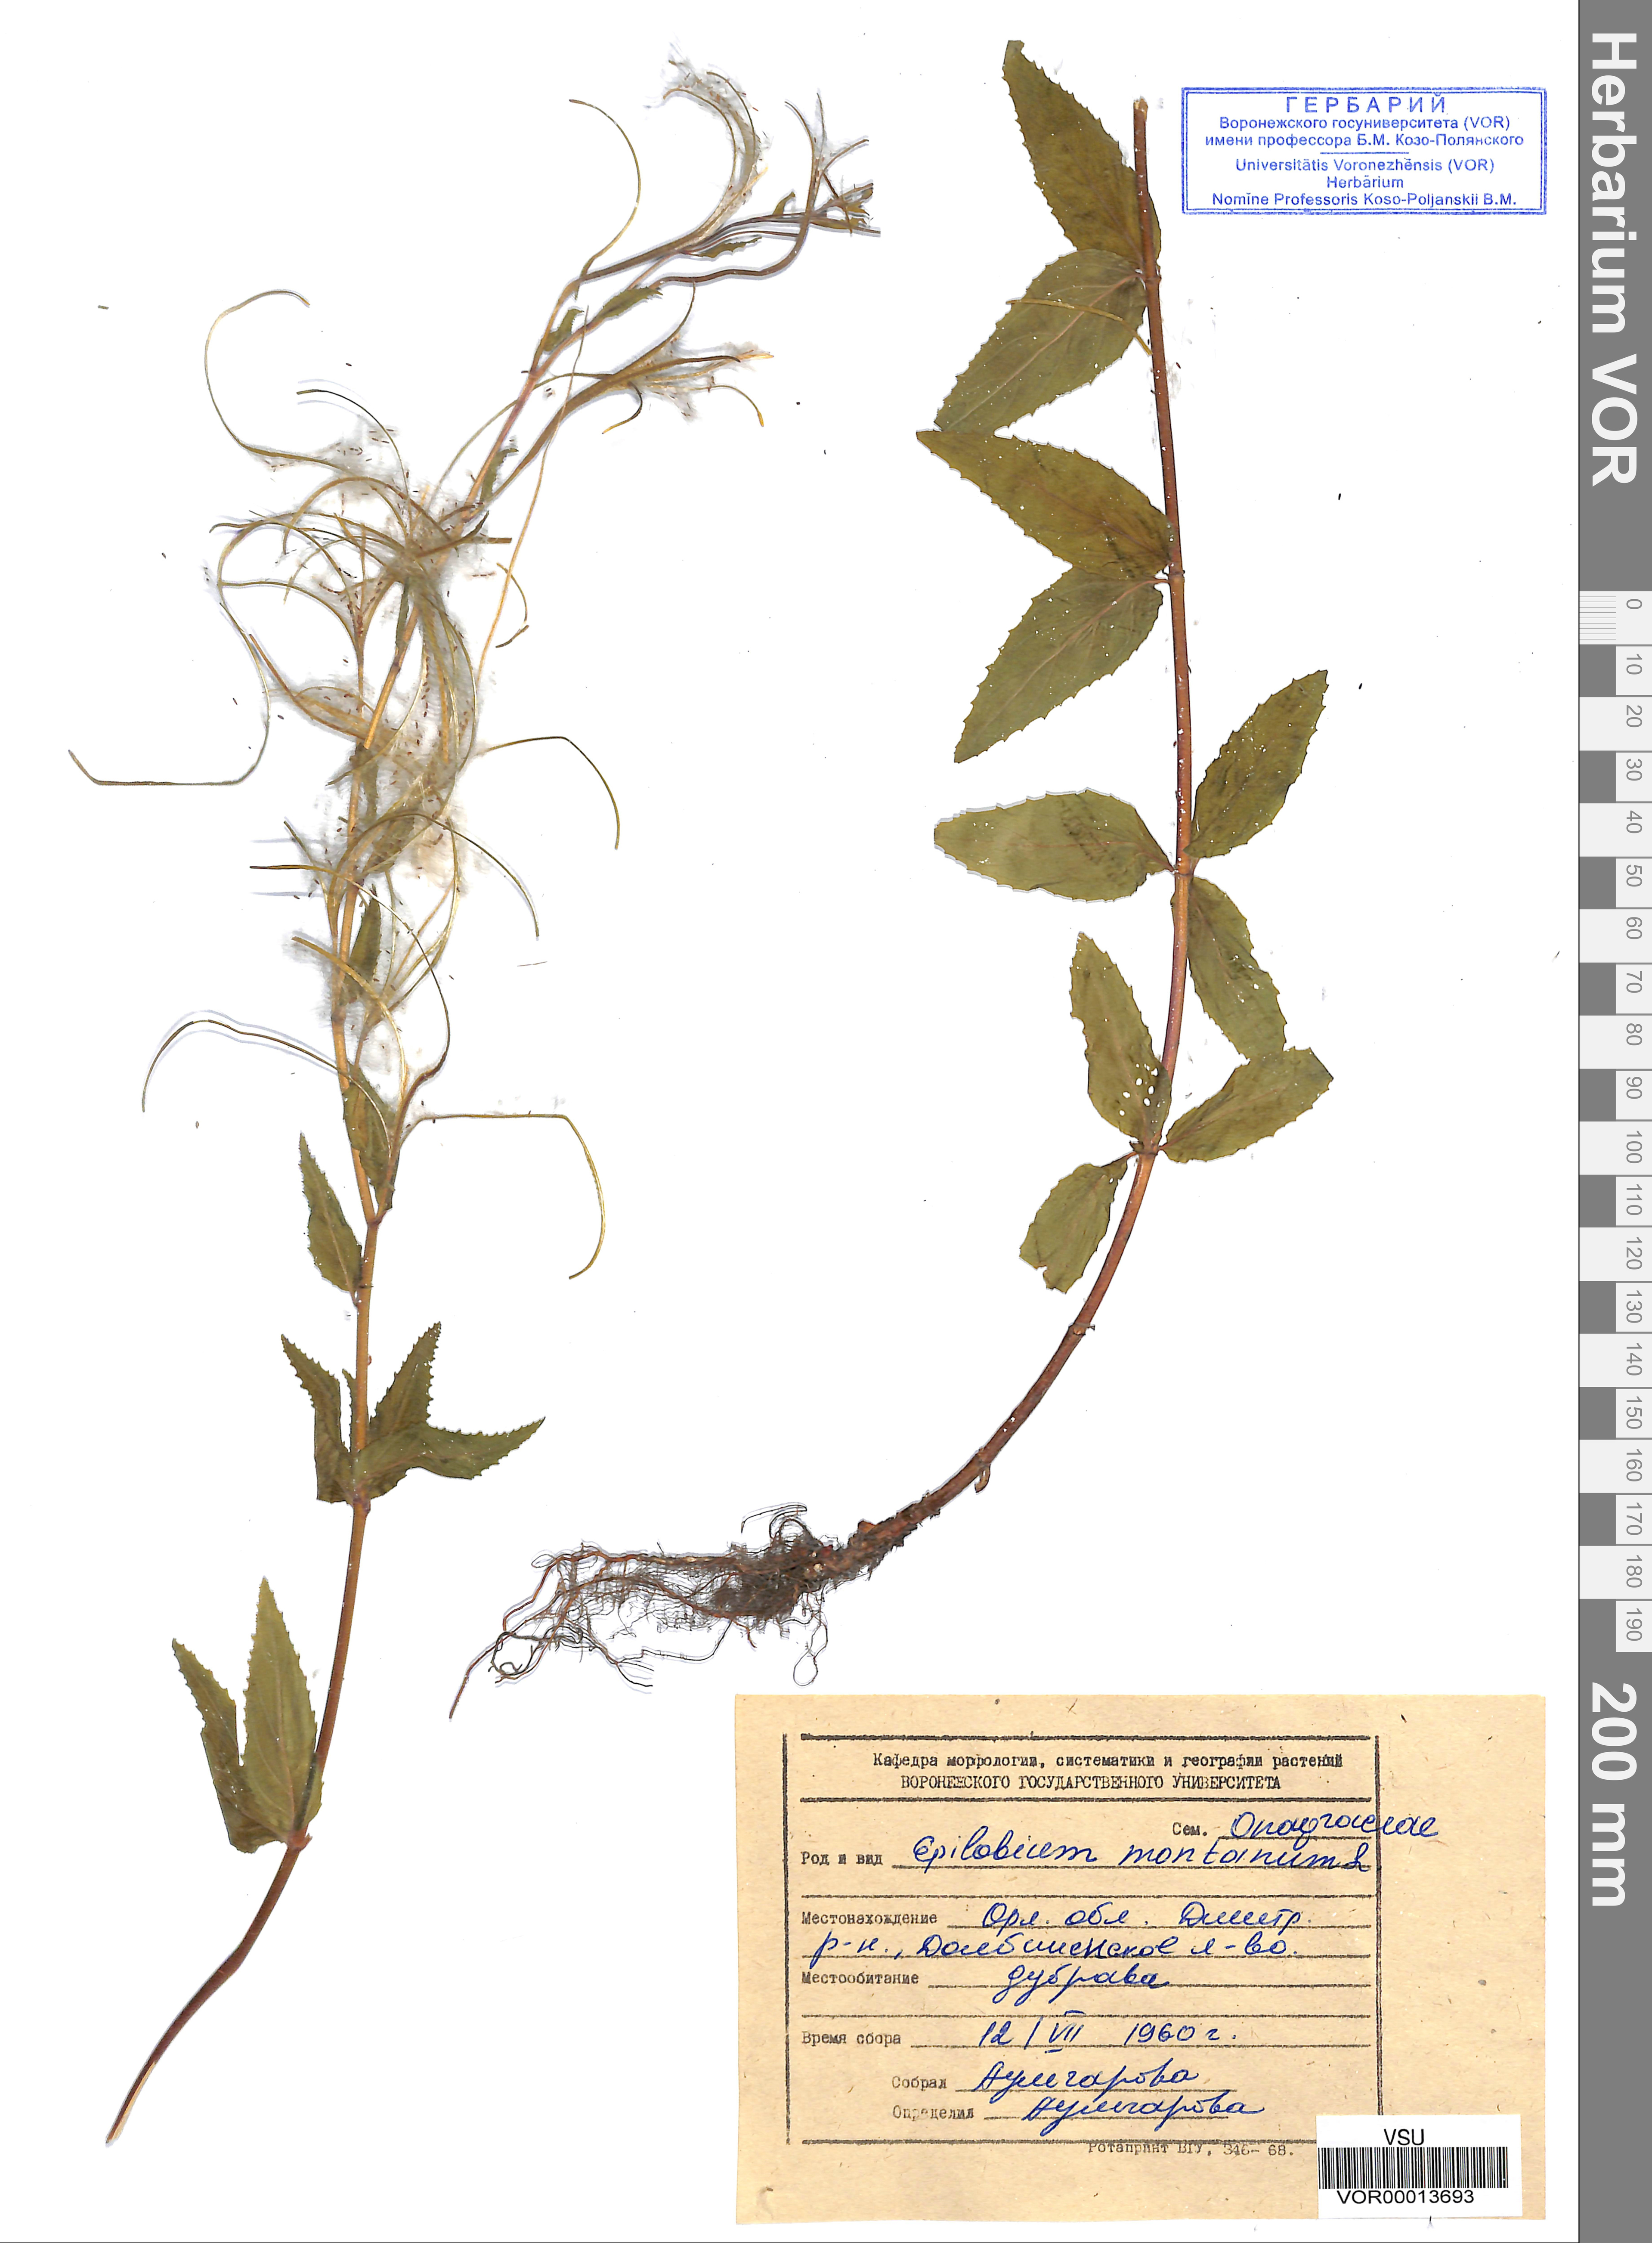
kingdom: Plantae
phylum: Tracheophyta
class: Magnoliopsida
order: Myrtales
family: Onagraceae
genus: Epilobium
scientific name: Epilobium montanum
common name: Broad-leaved willowherb
